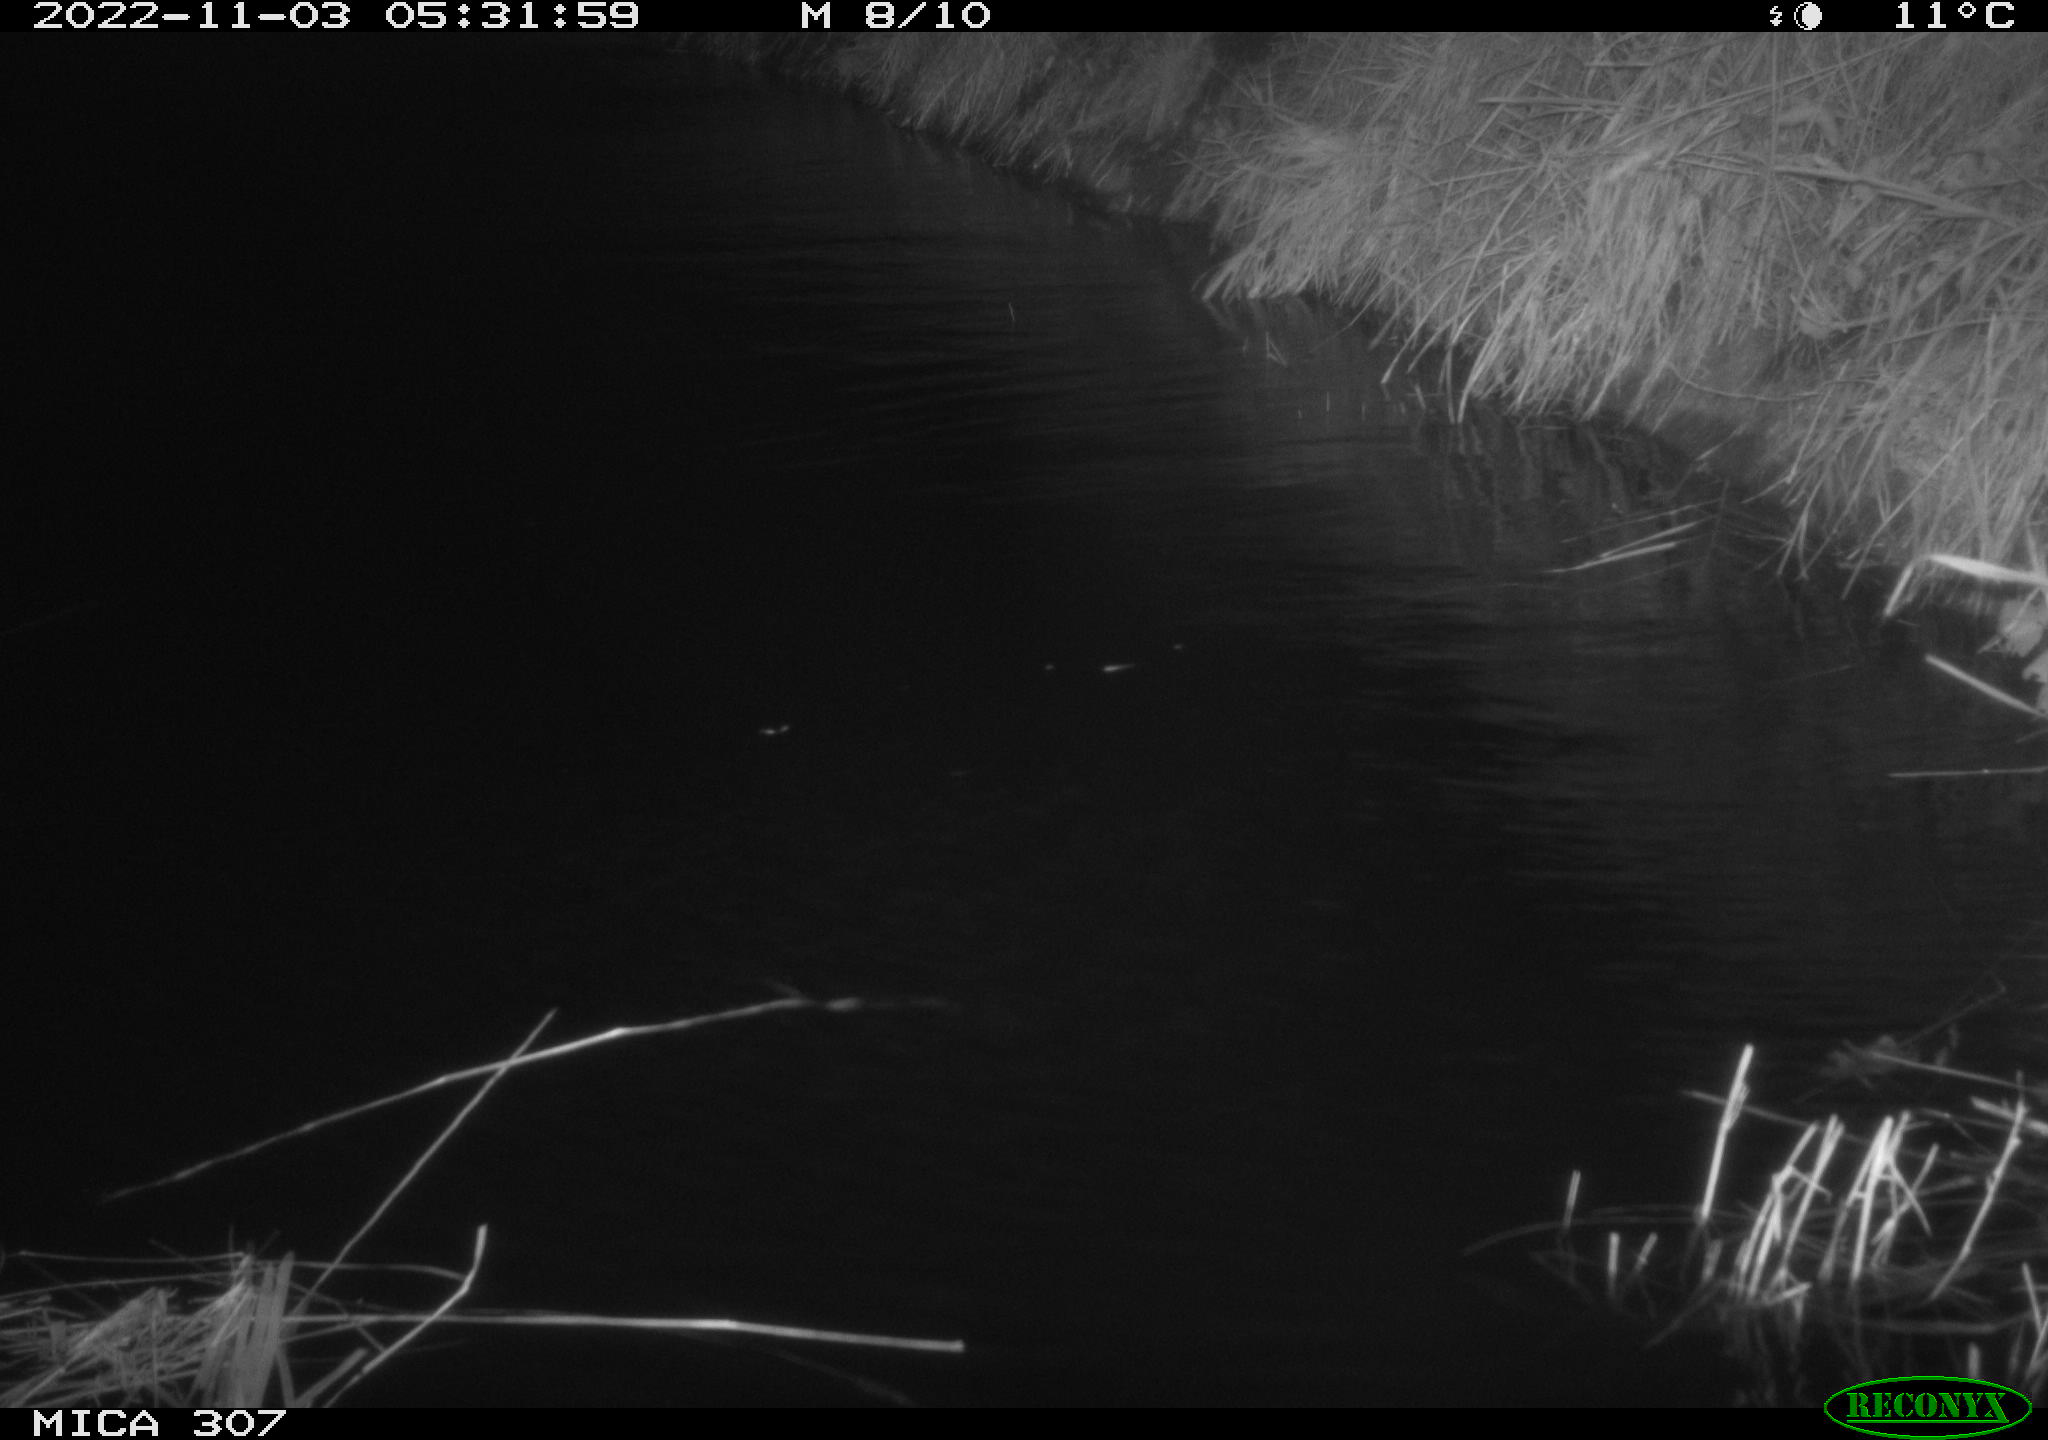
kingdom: Animalia
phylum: Chordata
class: Mammalia
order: Rodentia
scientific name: Rodentia
